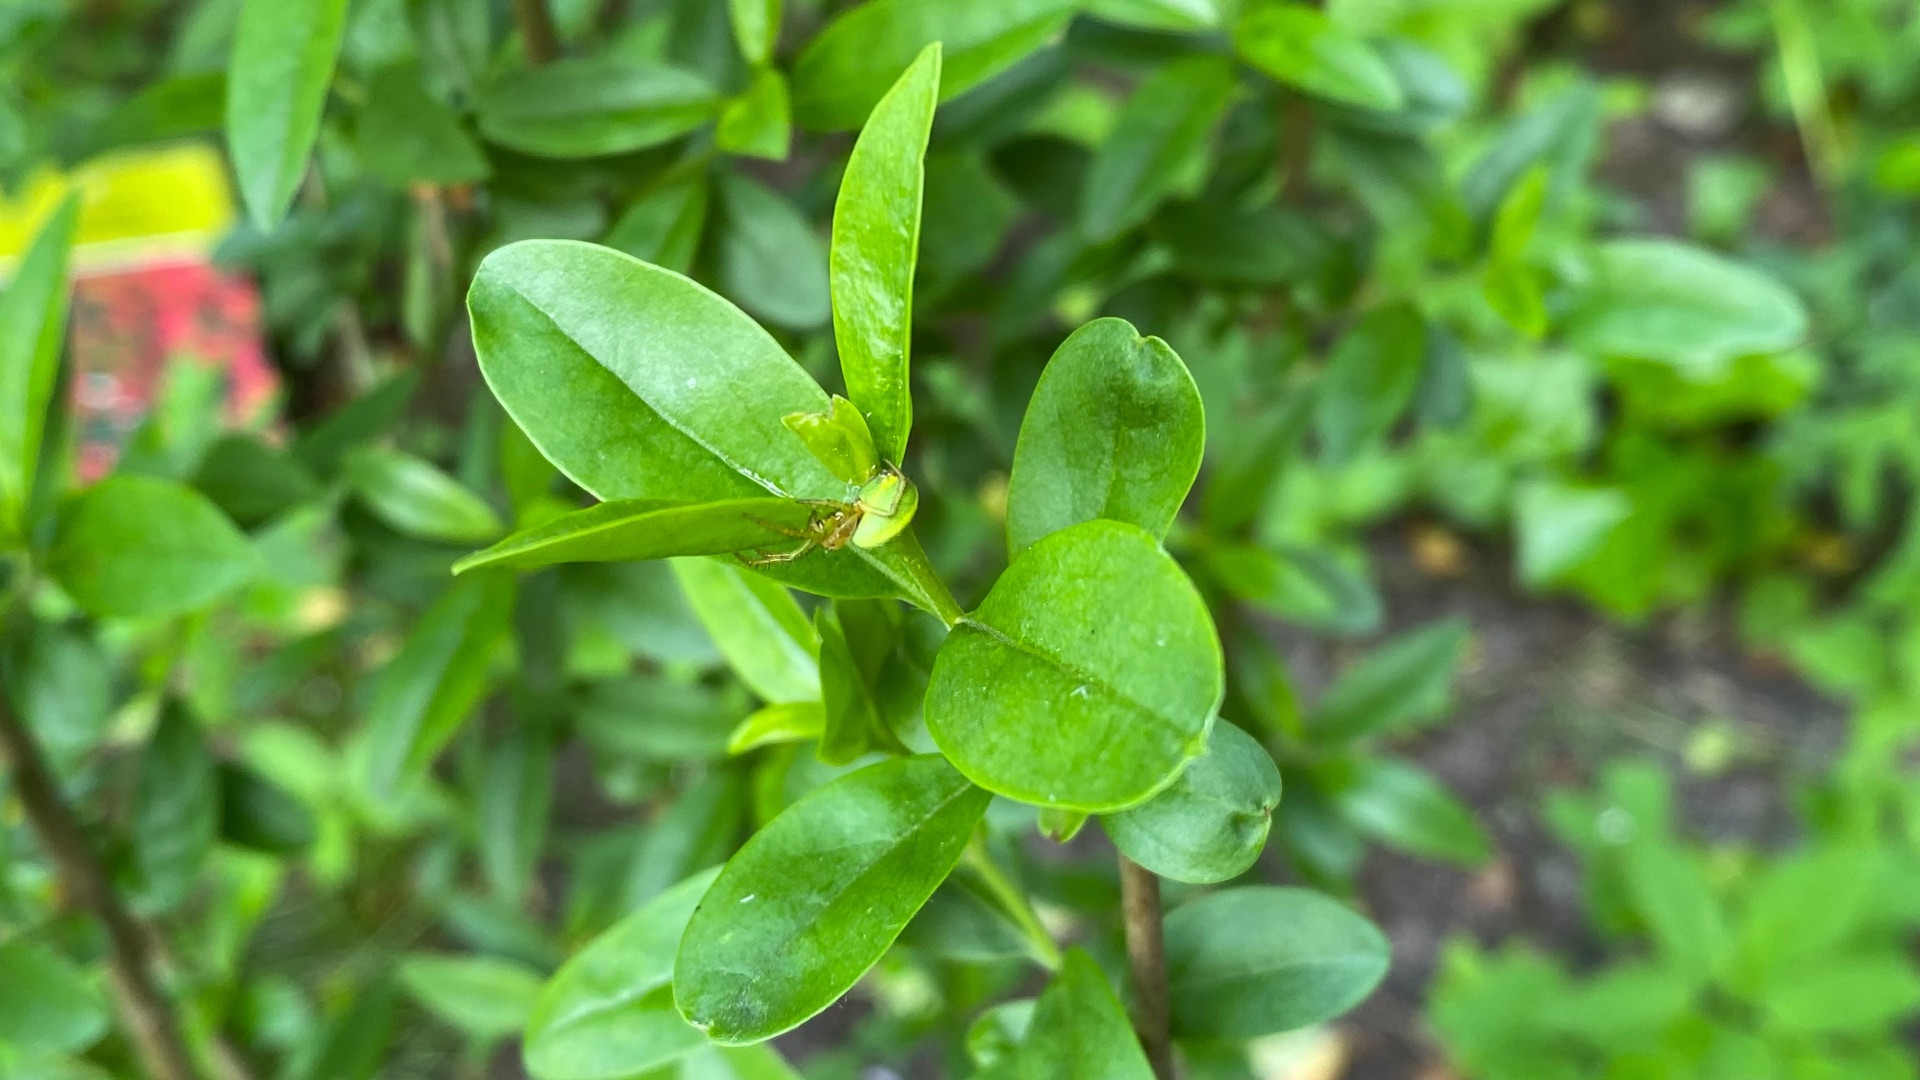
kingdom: Animalia
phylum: Arthropoda
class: Arachnida
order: Araneae
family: Araneidae
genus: Araniella
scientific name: Araniella
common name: Agurkeedderkopslægten
